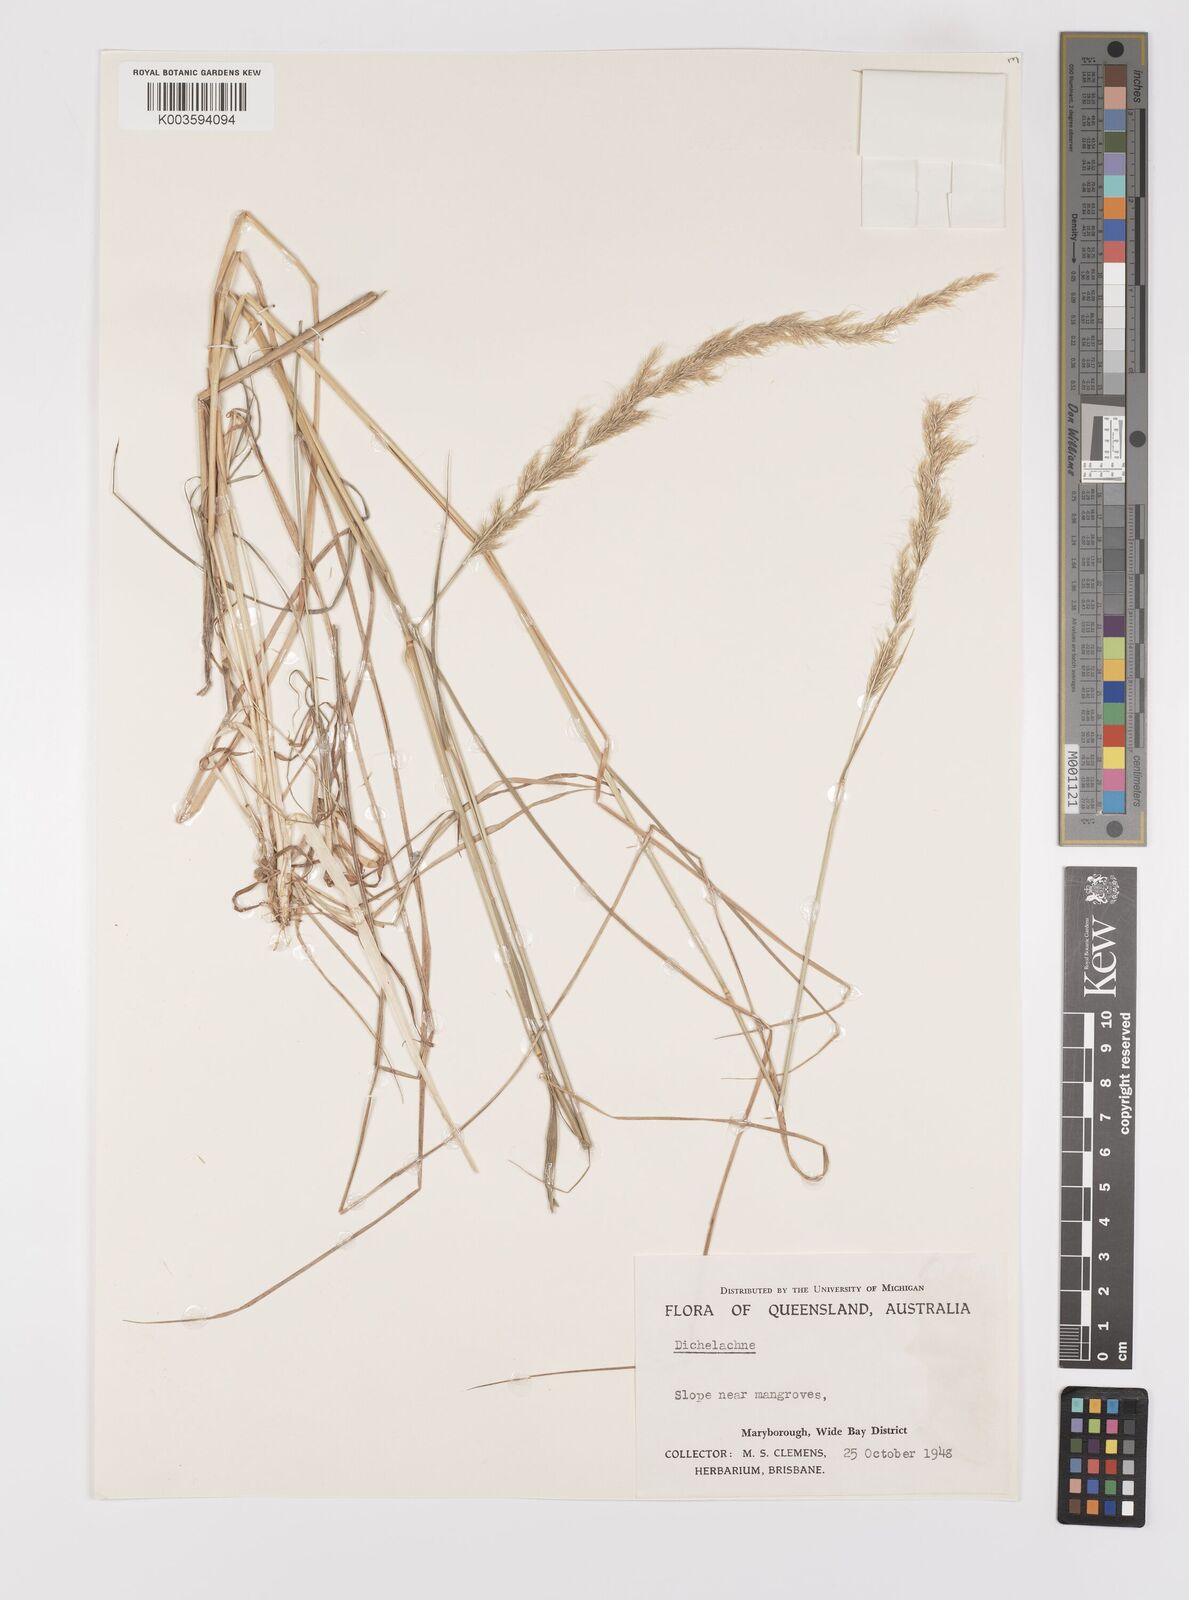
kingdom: Plantae
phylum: Tracheophyta
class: Liliopsida
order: Poales
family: Poaceae
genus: Dichelachne
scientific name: Dichelachne
